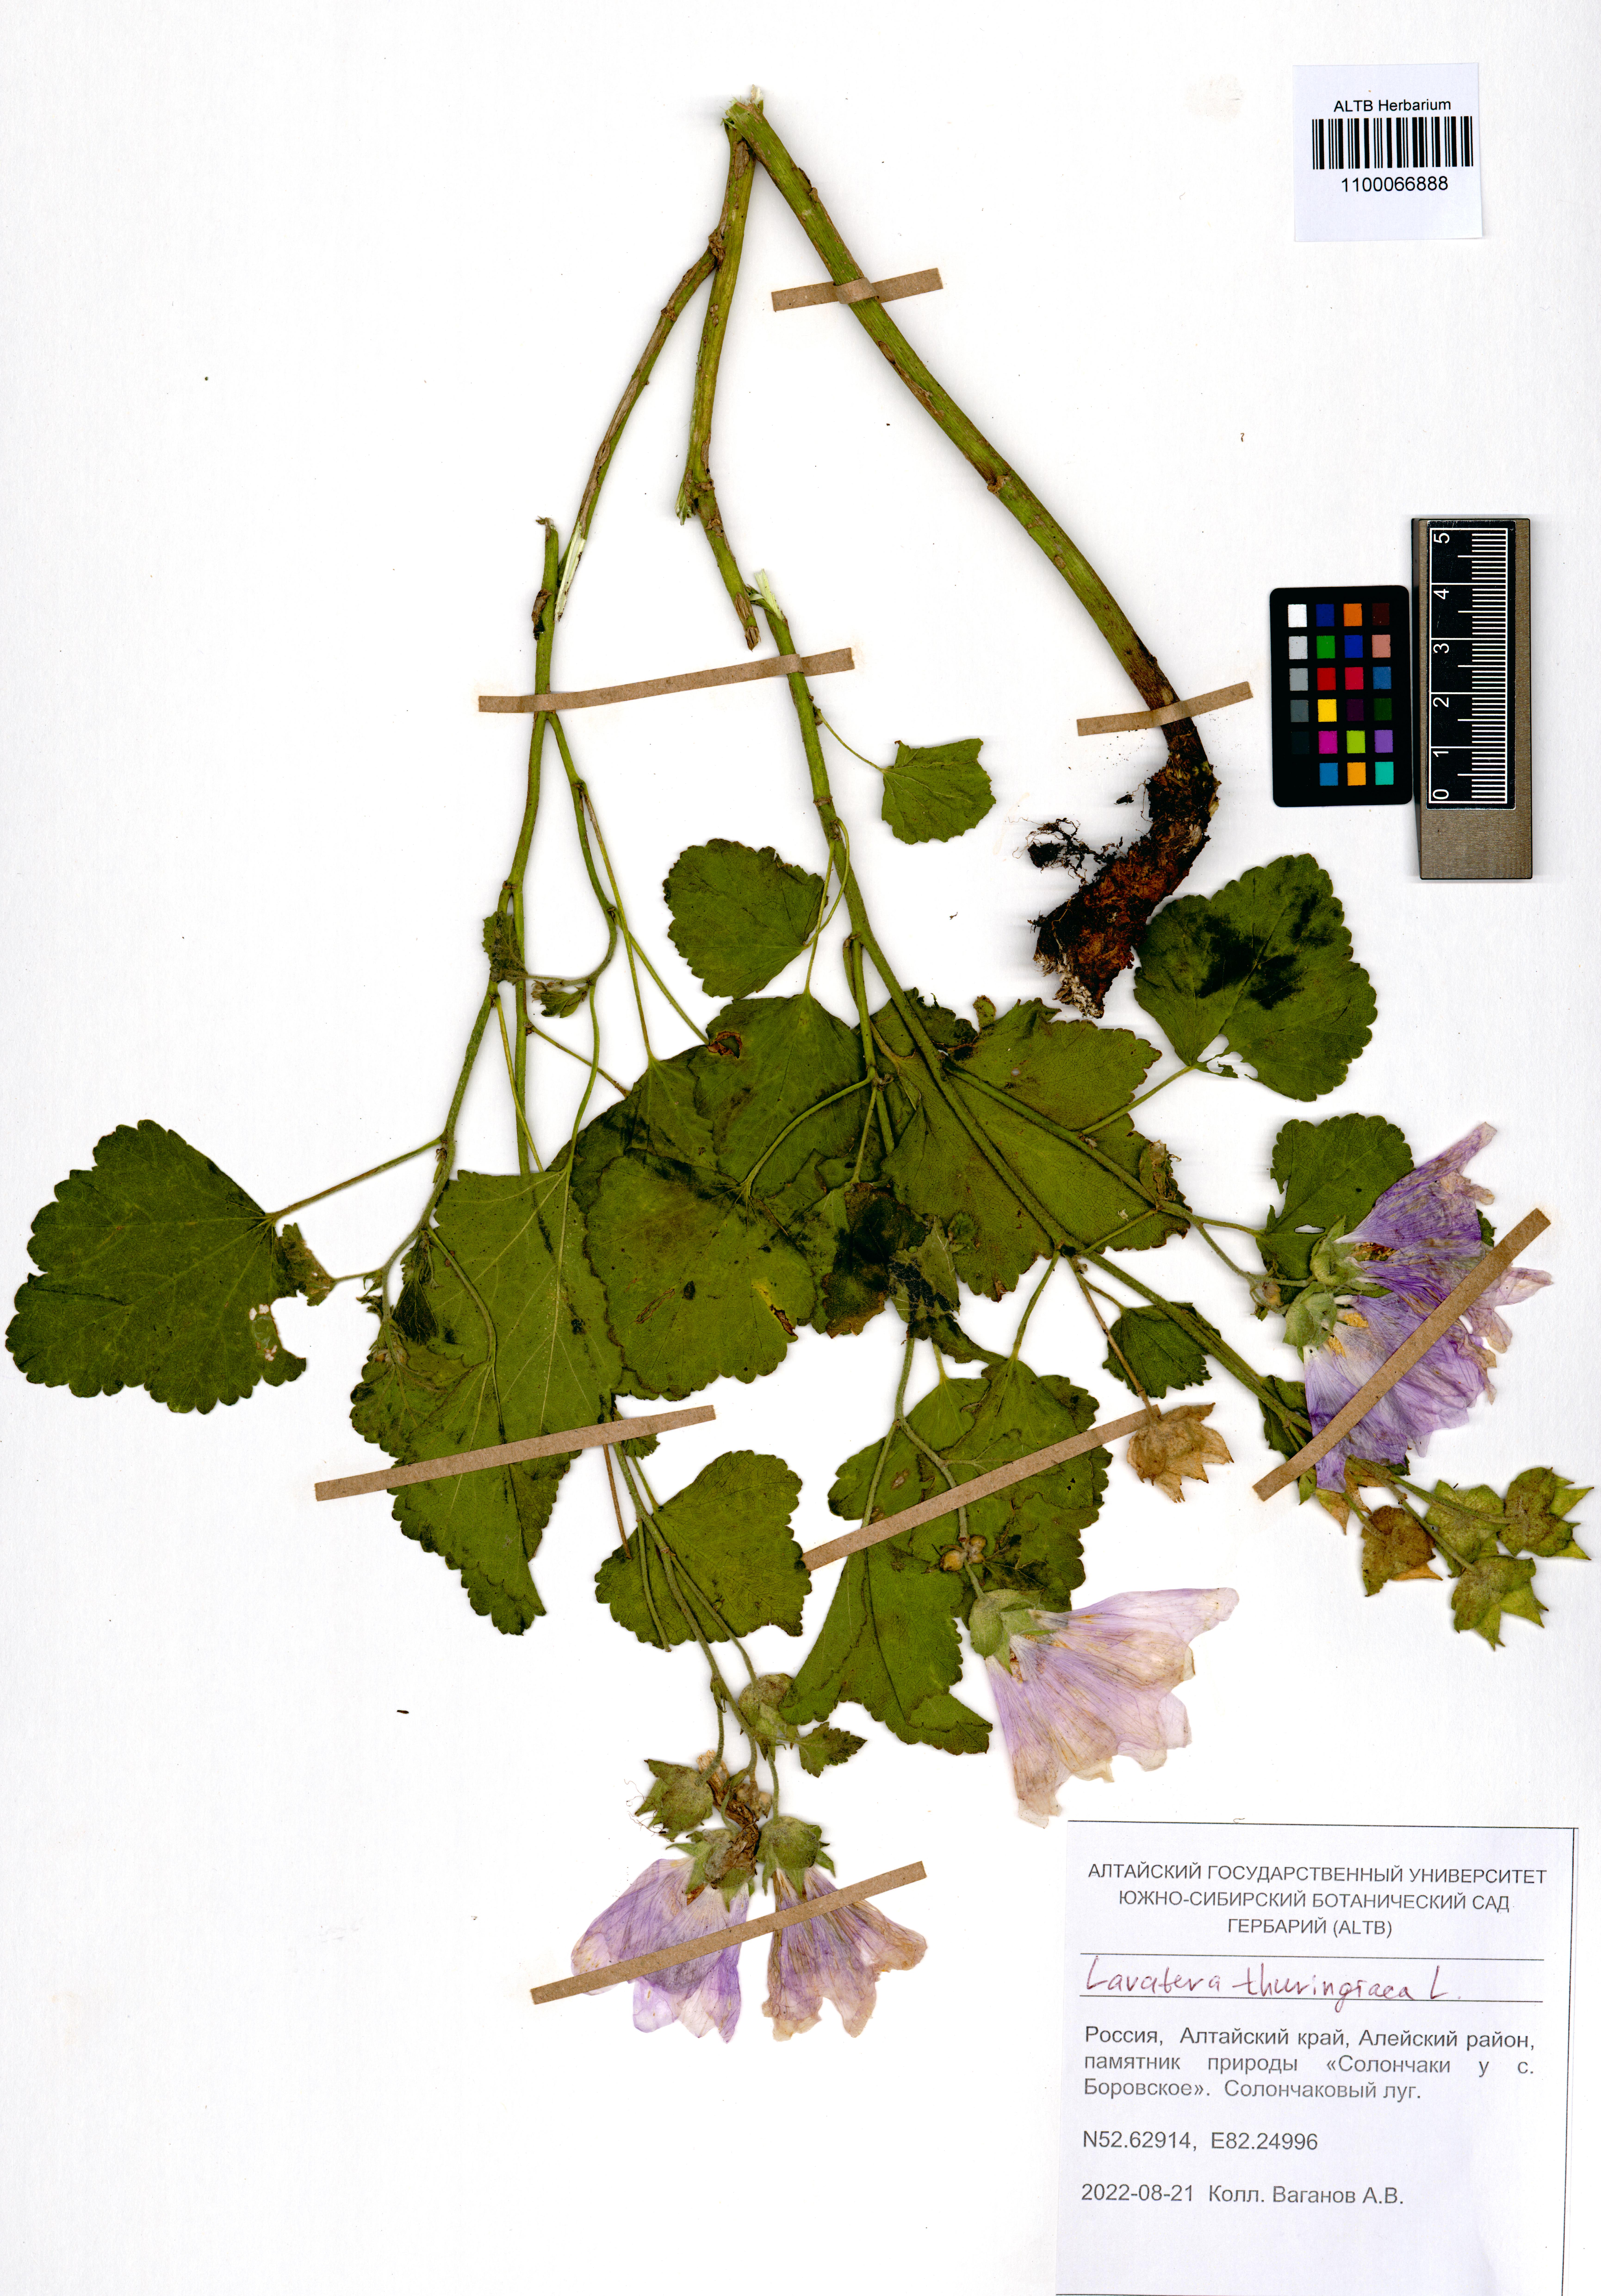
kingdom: Plantae
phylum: Tracheophyta
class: Magnoliopsida
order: Malvales
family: Malvaceae
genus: Malva
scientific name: Malva thuringiaca
